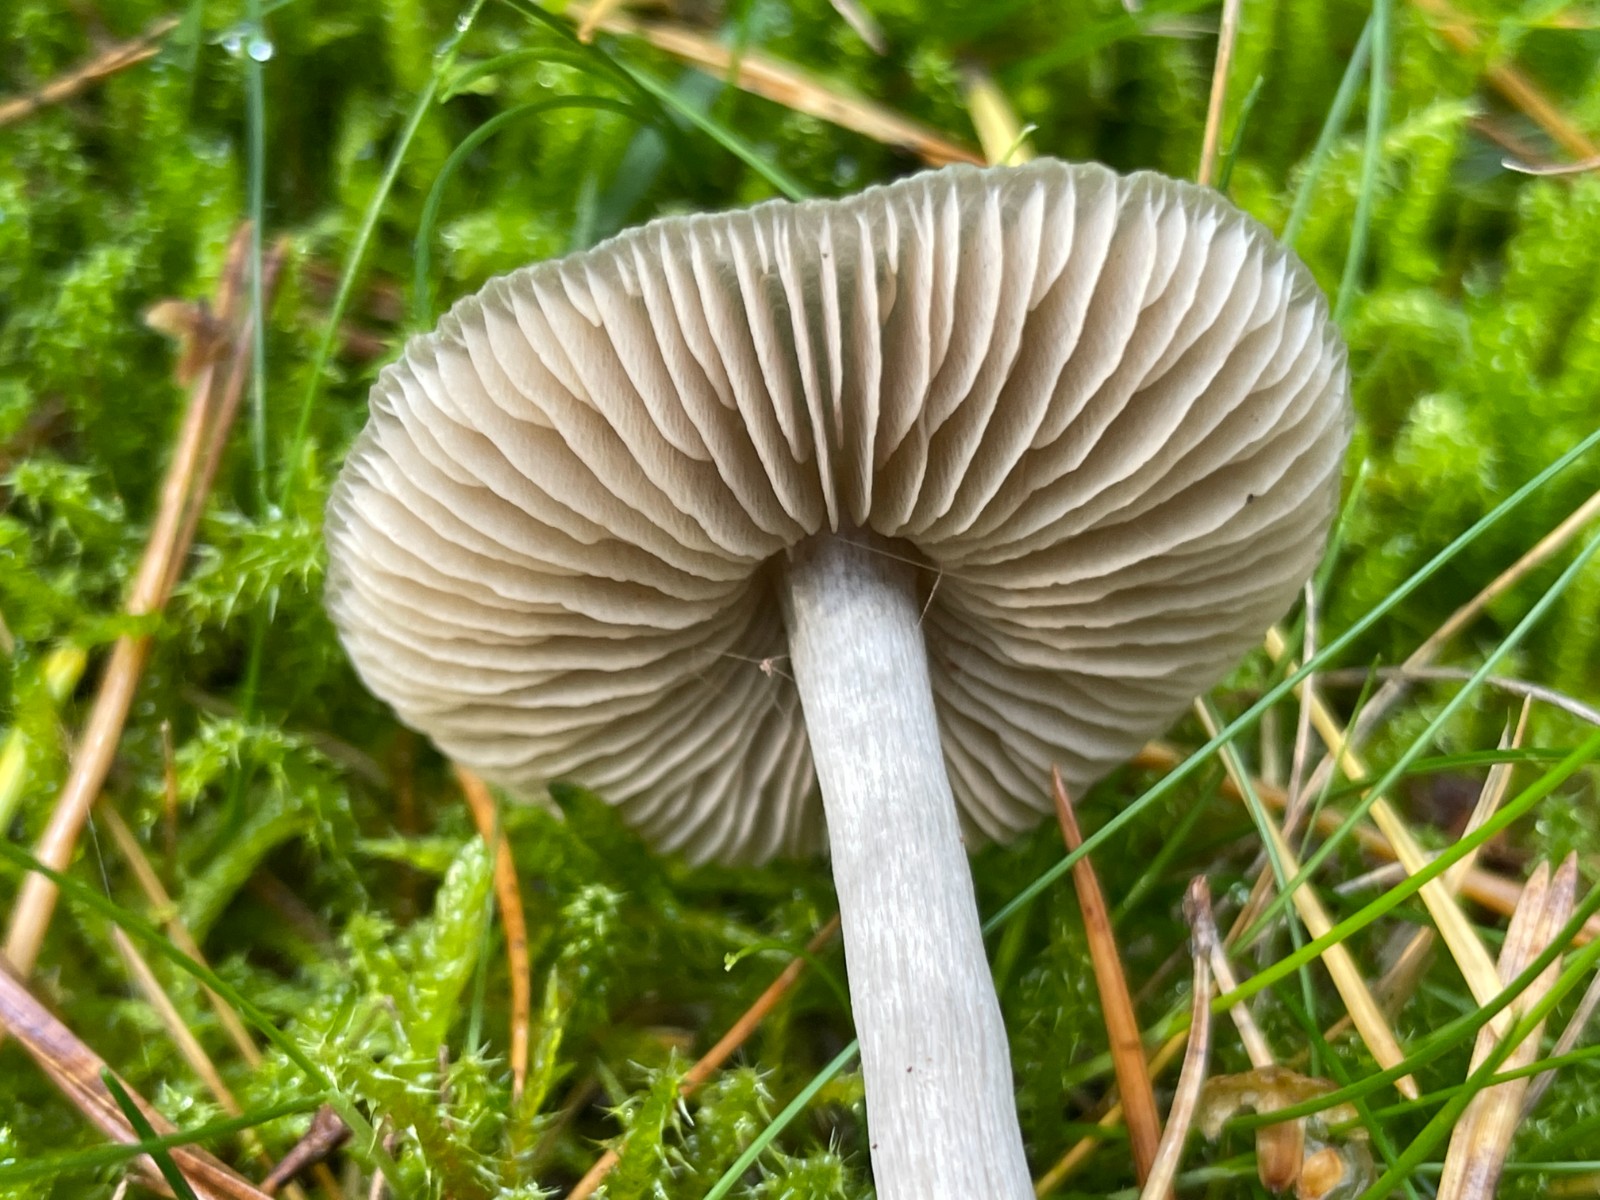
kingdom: Fungi
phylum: Basidiomycota
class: Agaricomycetes
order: Agaricales
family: Entolomataceae
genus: Entocybe
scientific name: Entocybe turbida
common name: plantage-rødblad
